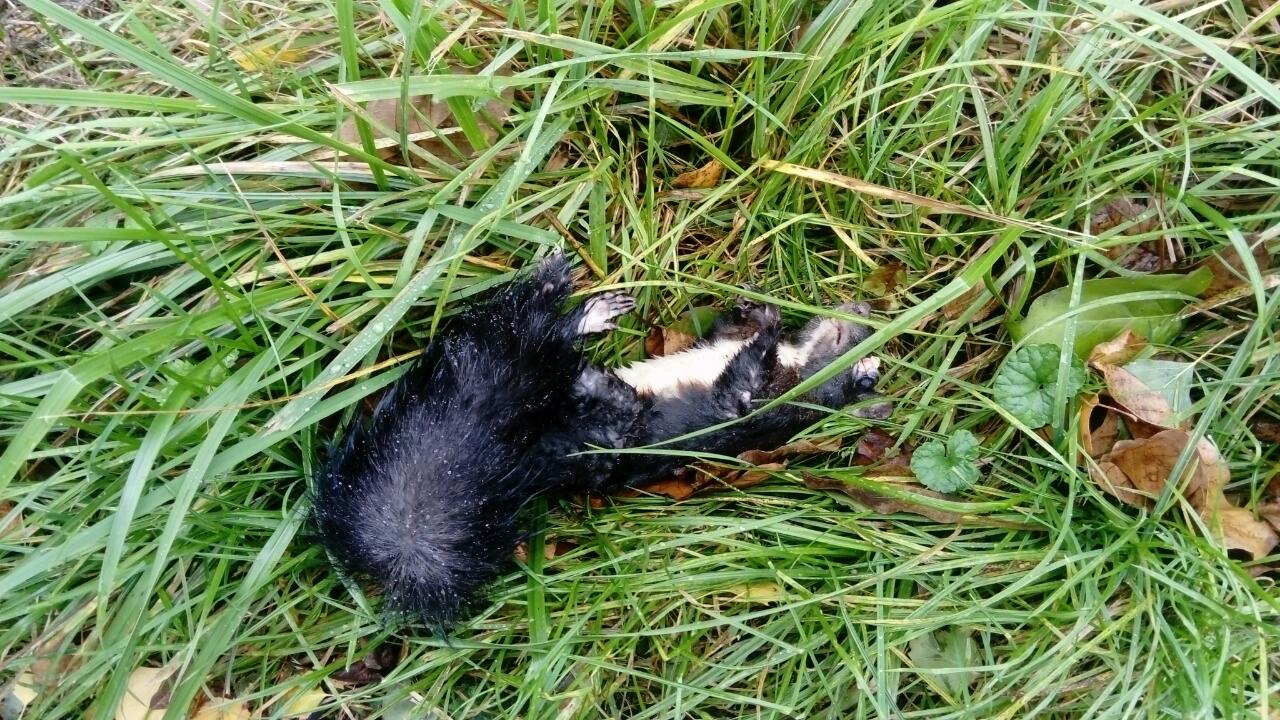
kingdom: Animalia
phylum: Chordata
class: Mammalia
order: Rodentia
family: Sciuridae
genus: Sciurus
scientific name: Sciurus vulgaris
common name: Eurasian red squirrel
